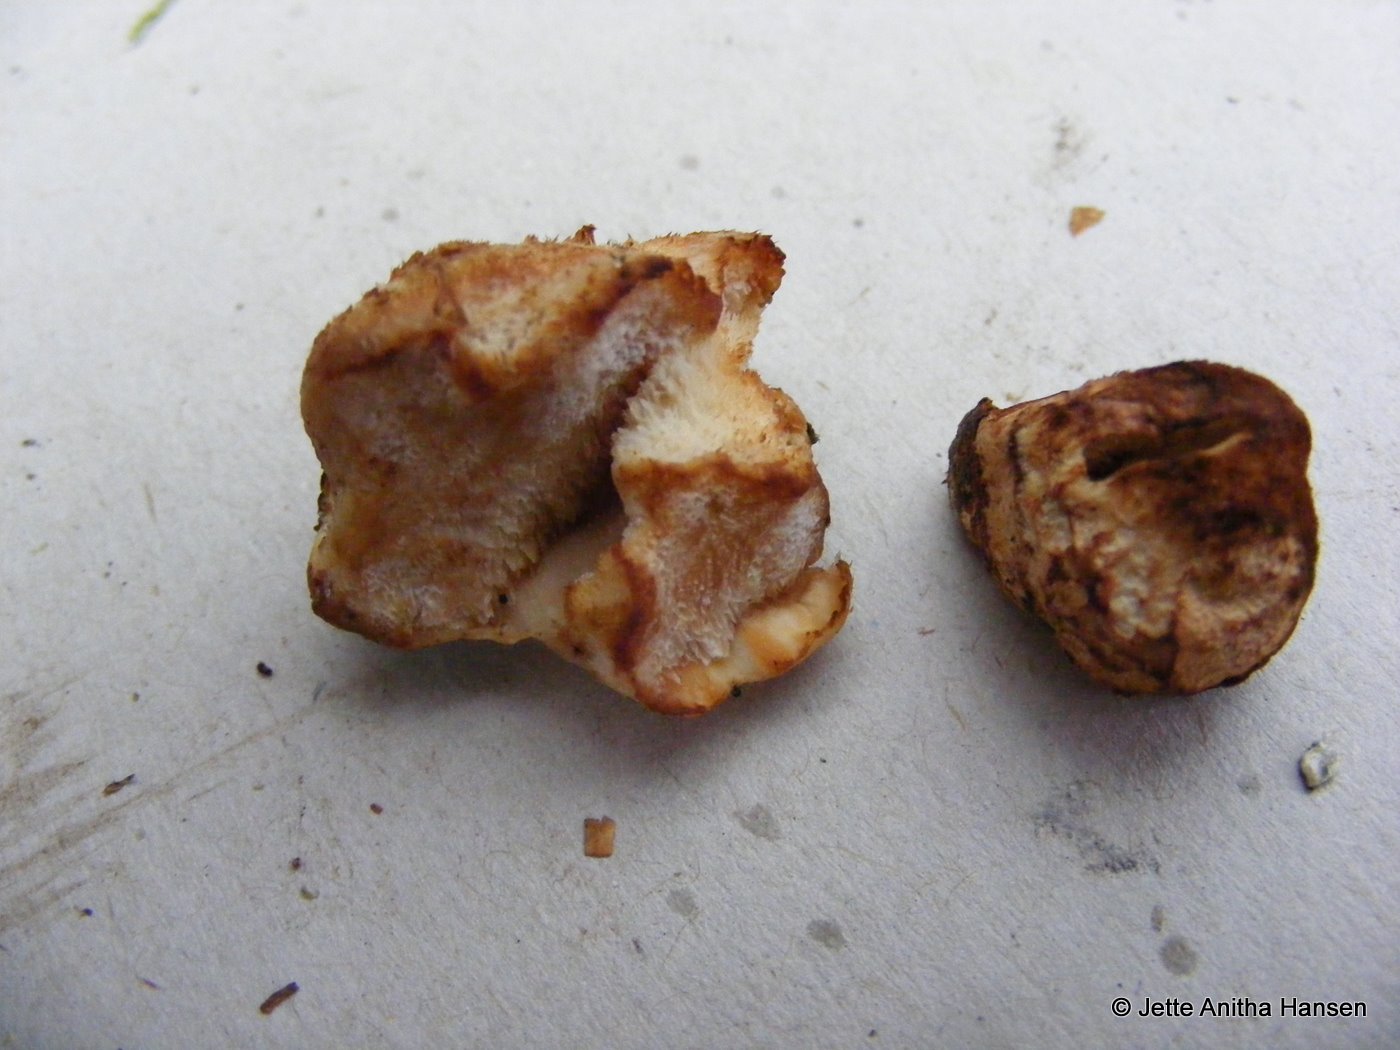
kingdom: Fungi
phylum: Basidiomycota
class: Agaricomycetes
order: Polyporales
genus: Fuscopostia
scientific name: Fuscopostia fragilis
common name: brunende kødporesvamp
